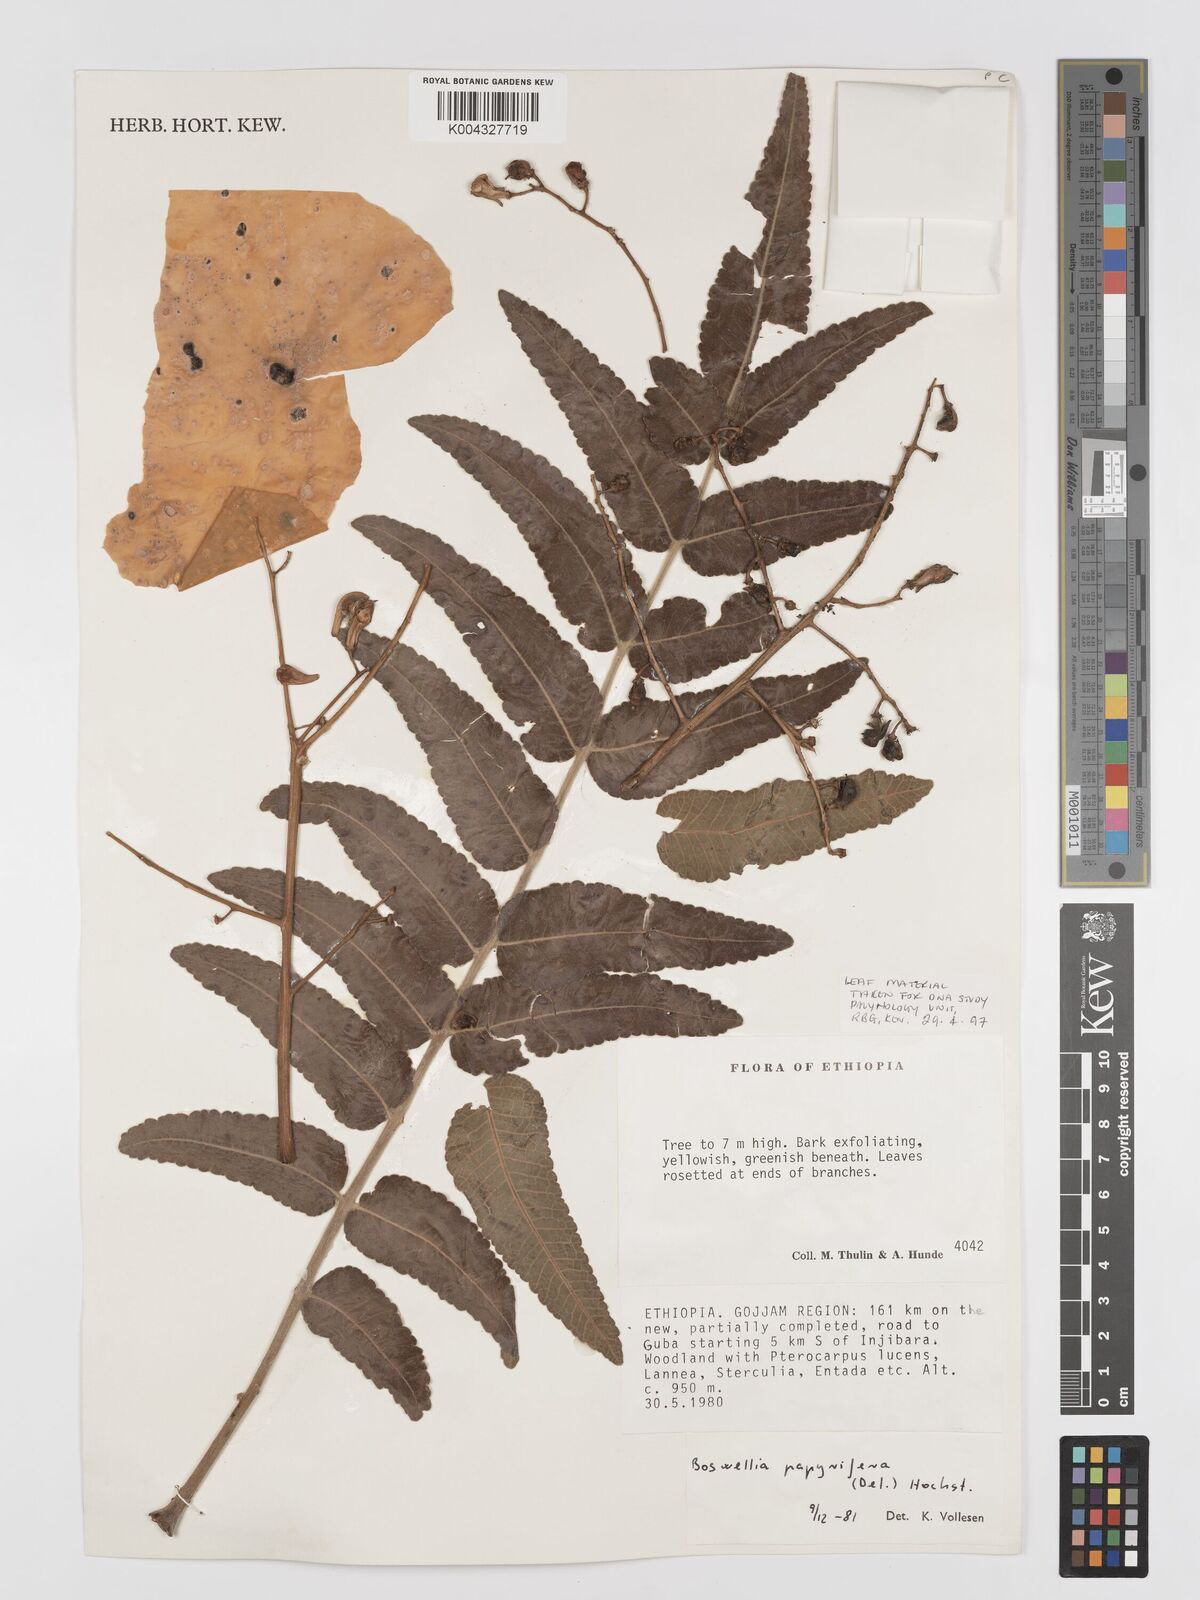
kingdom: Plantae
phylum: Tracheophyta
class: Magnoliopsida
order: Sapindales
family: Burseraceae
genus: Boswellia
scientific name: Boswellia papyrifera
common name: Sudanese frankincense
